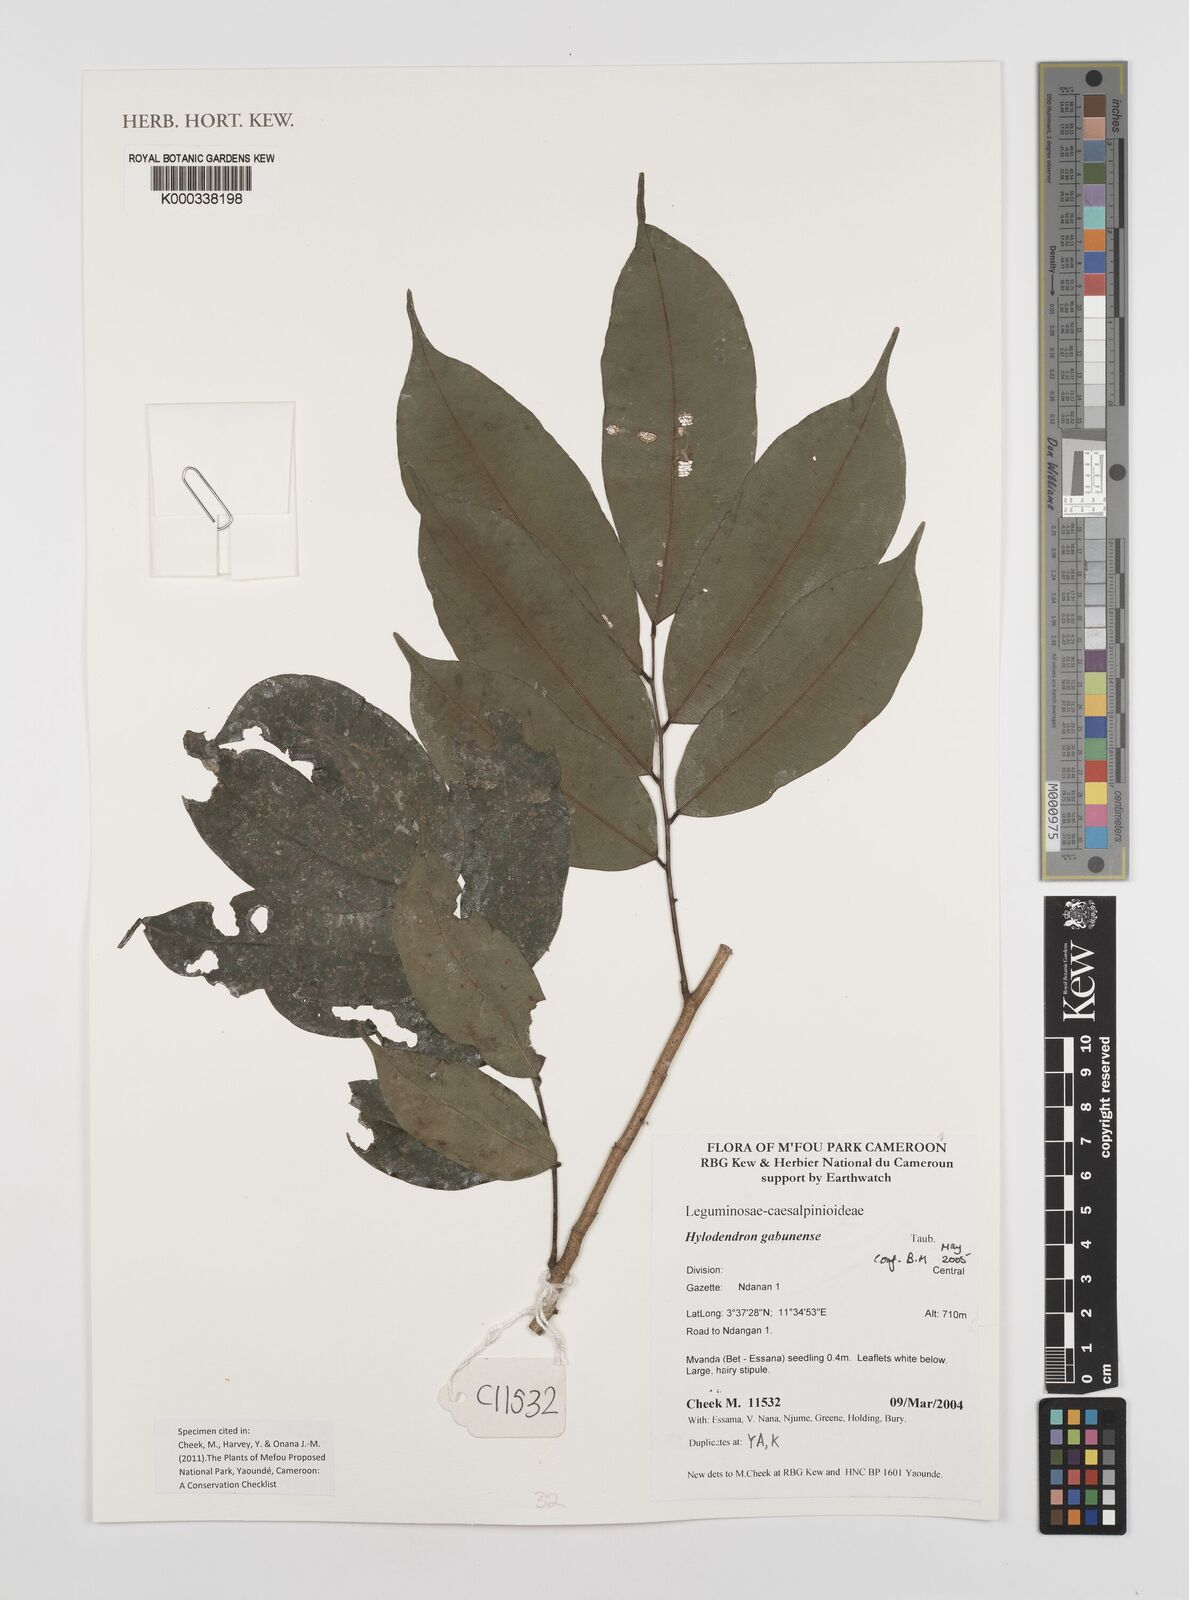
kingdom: Plantae
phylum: Tracheophyta
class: Magnoliopsida
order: Fabales
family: Fabaceae
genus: Hylodendron
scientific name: Hylodendron gabunense
